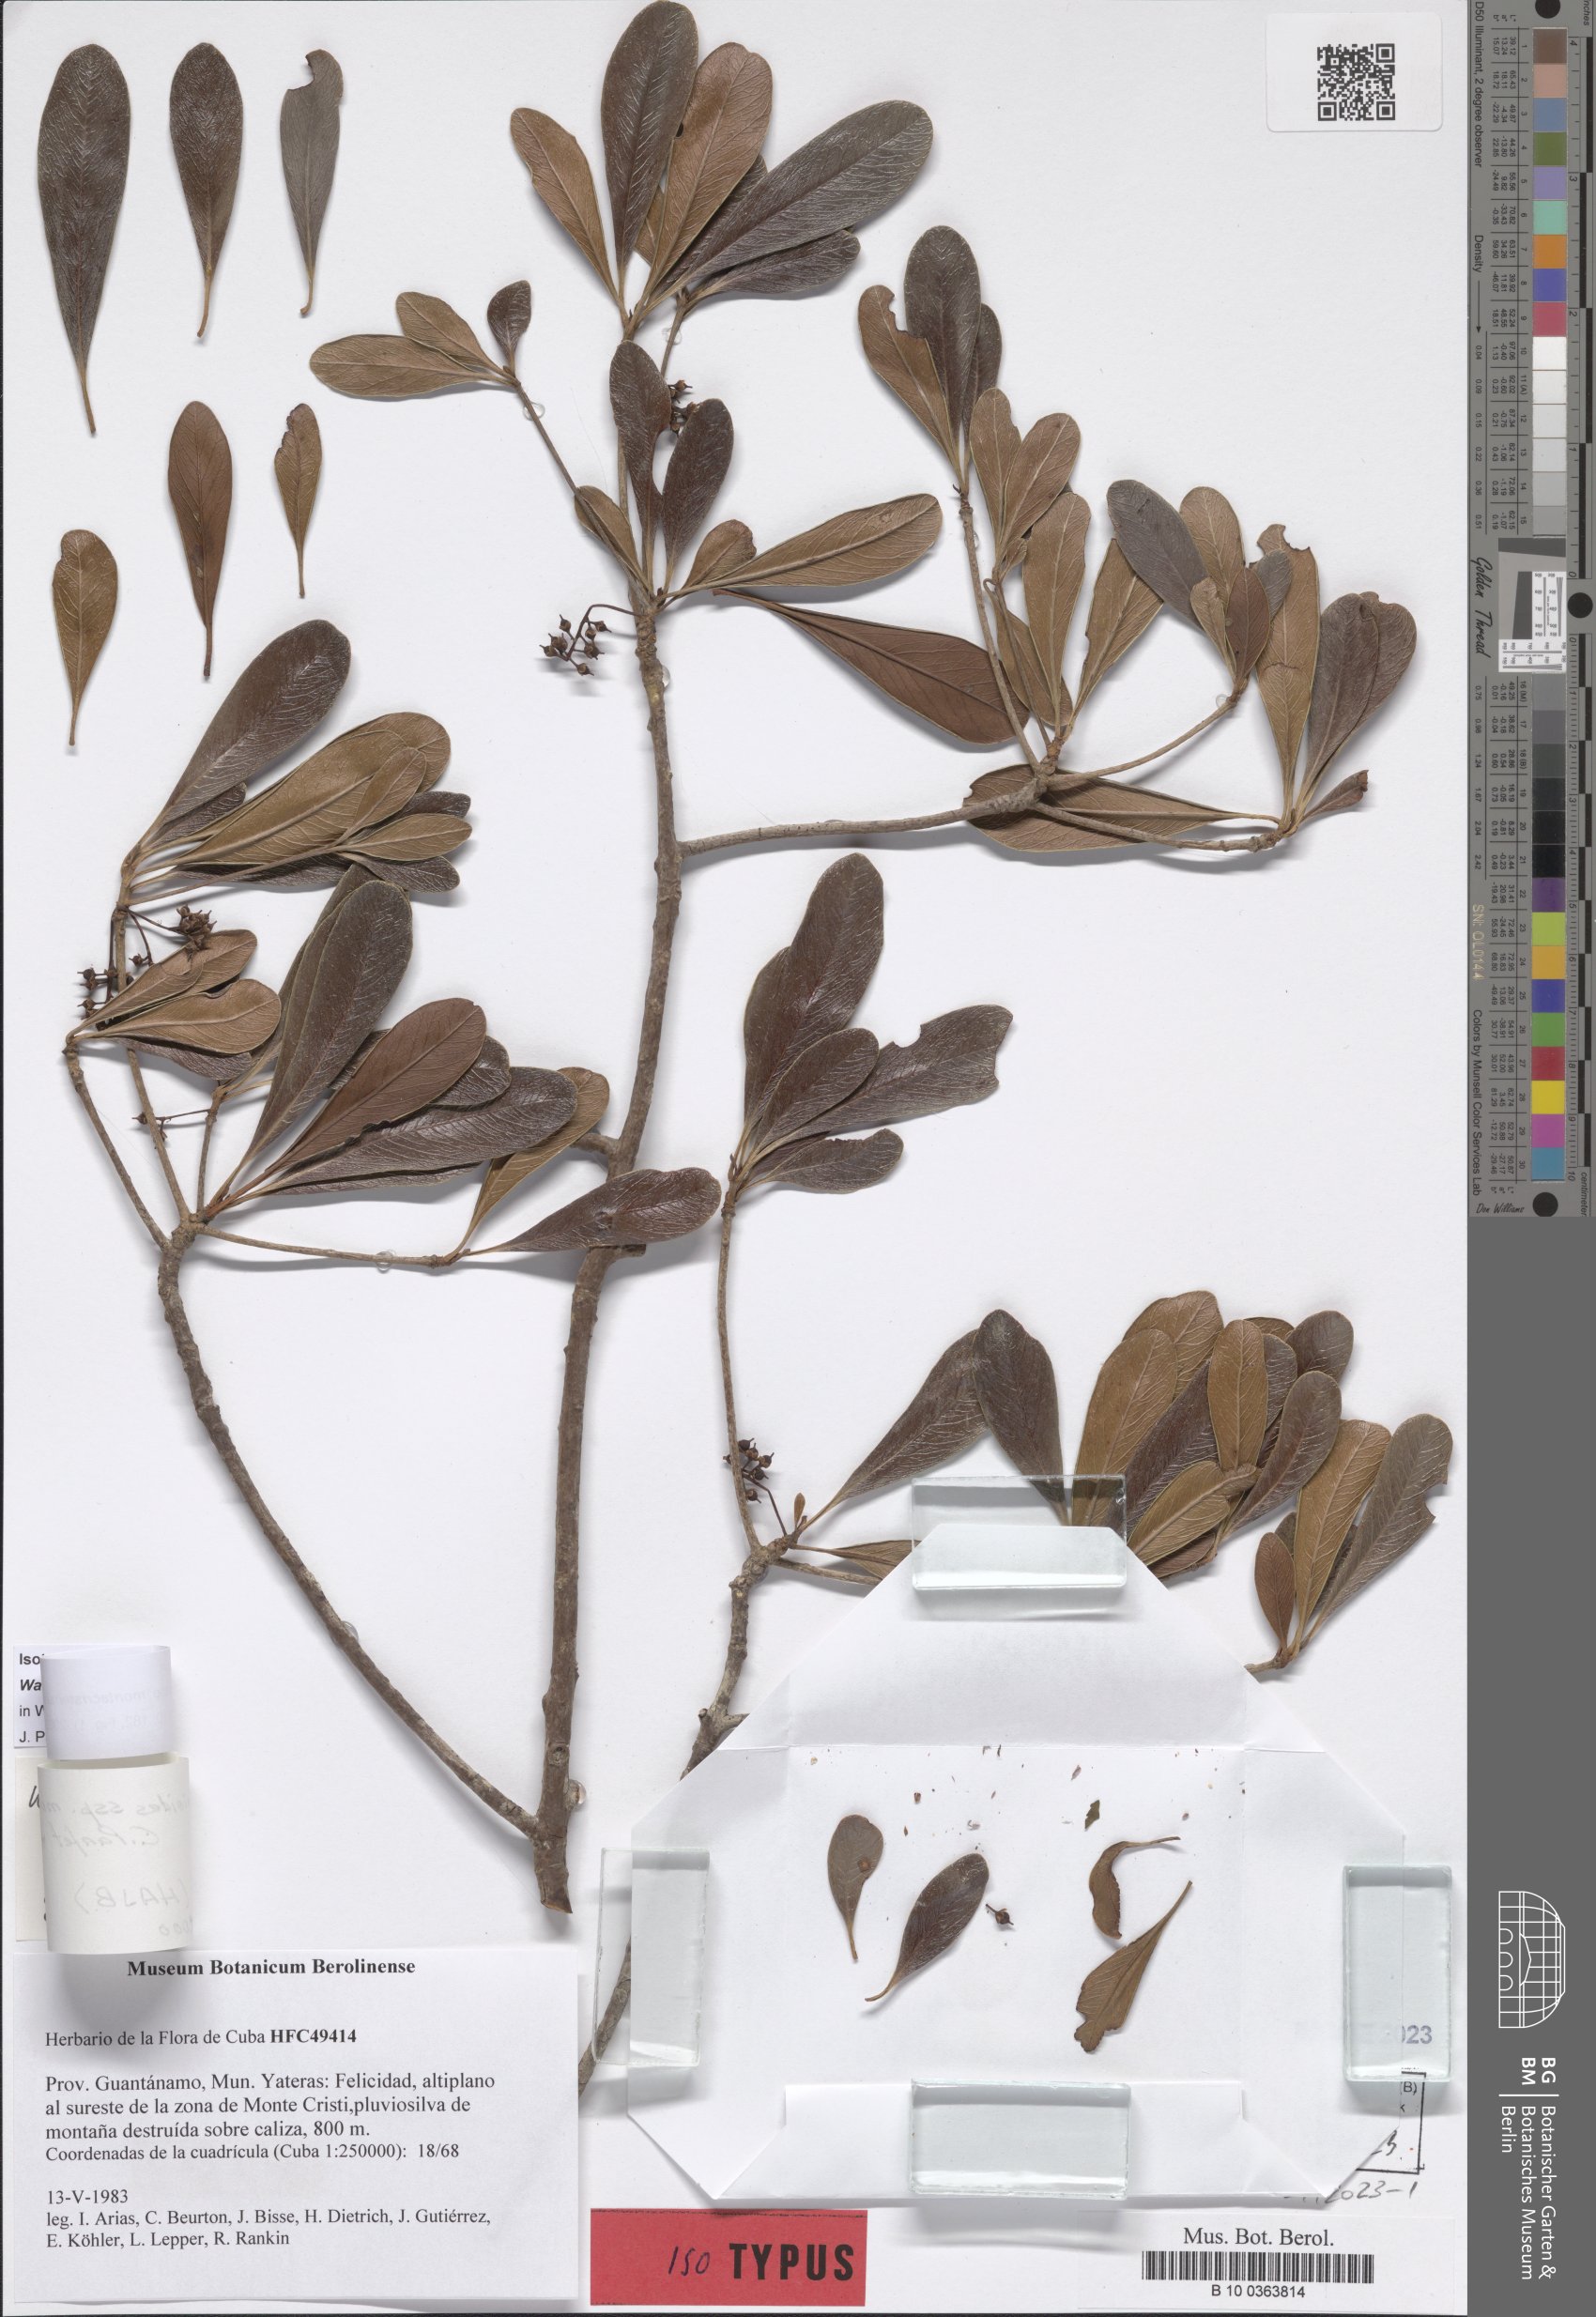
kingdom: Plantae
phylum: Tracheophyta
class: Magnoliopsida
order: Ericales
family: Primulaceae
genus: Wallenia
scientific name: Wallenia jacquinioides
